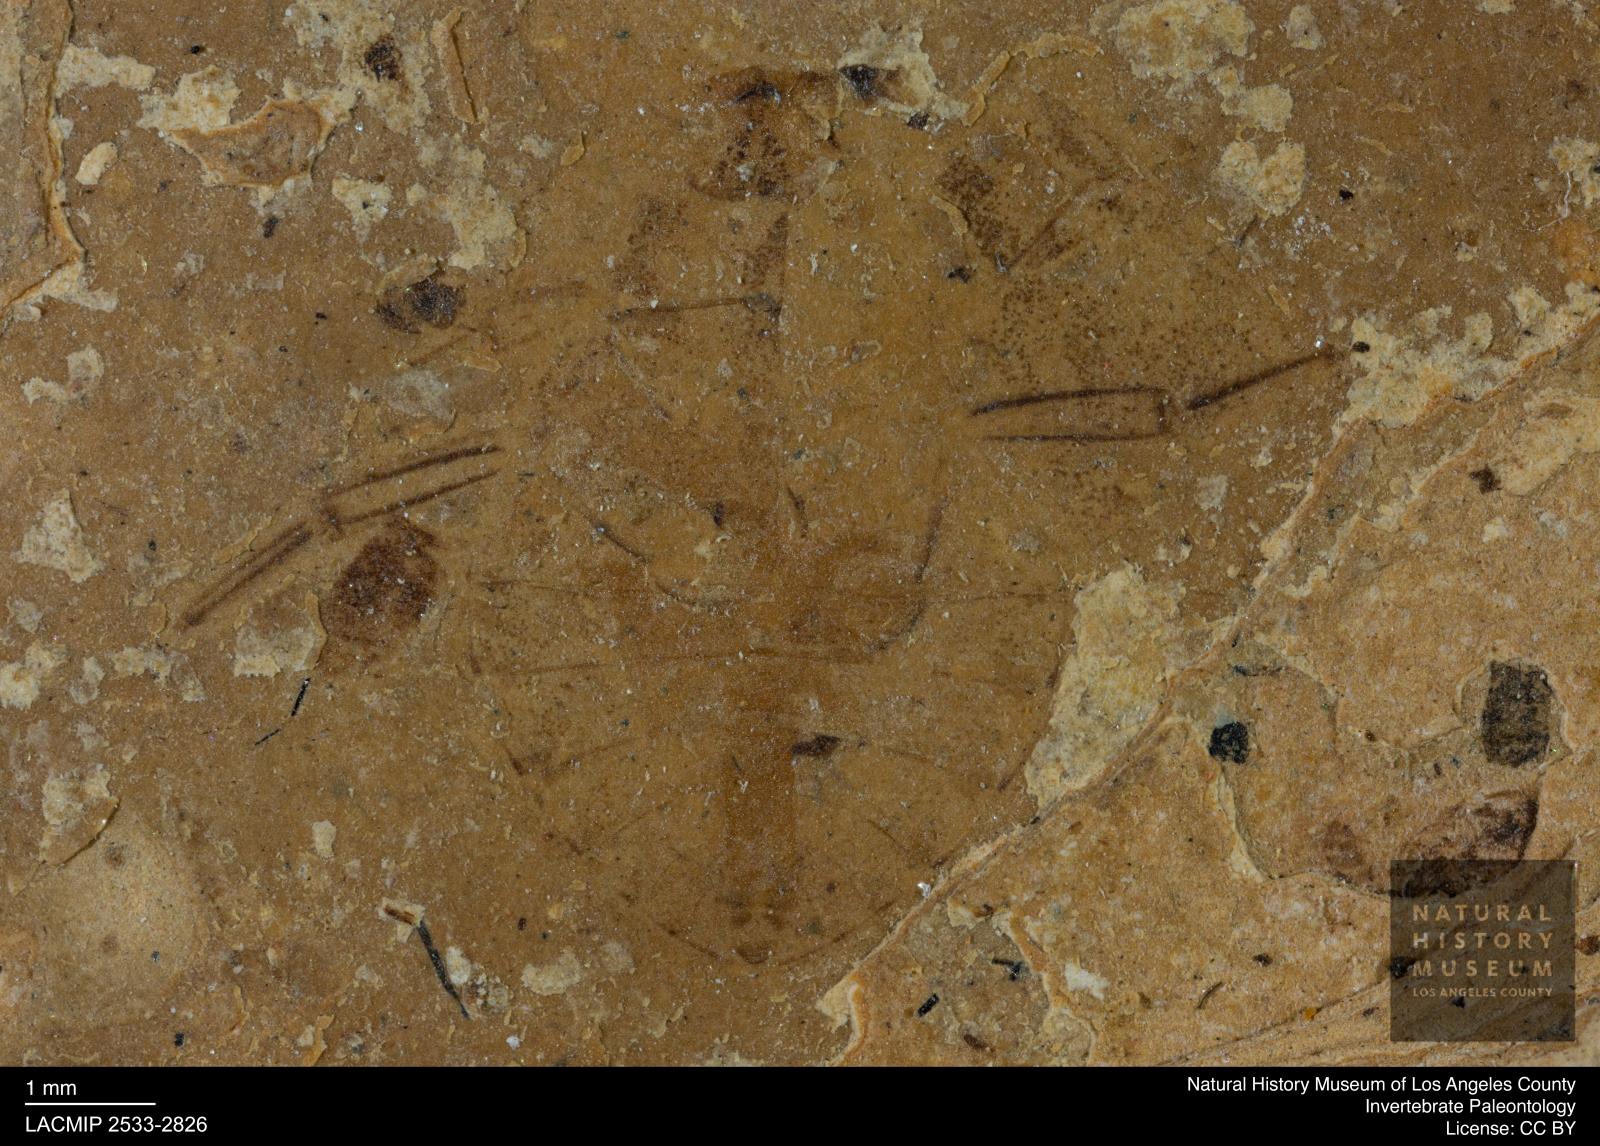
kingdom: Animalia
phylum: Arthropoda
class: Insecta
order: Hemiptera
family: Naucoridae
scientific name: Naucoridae
